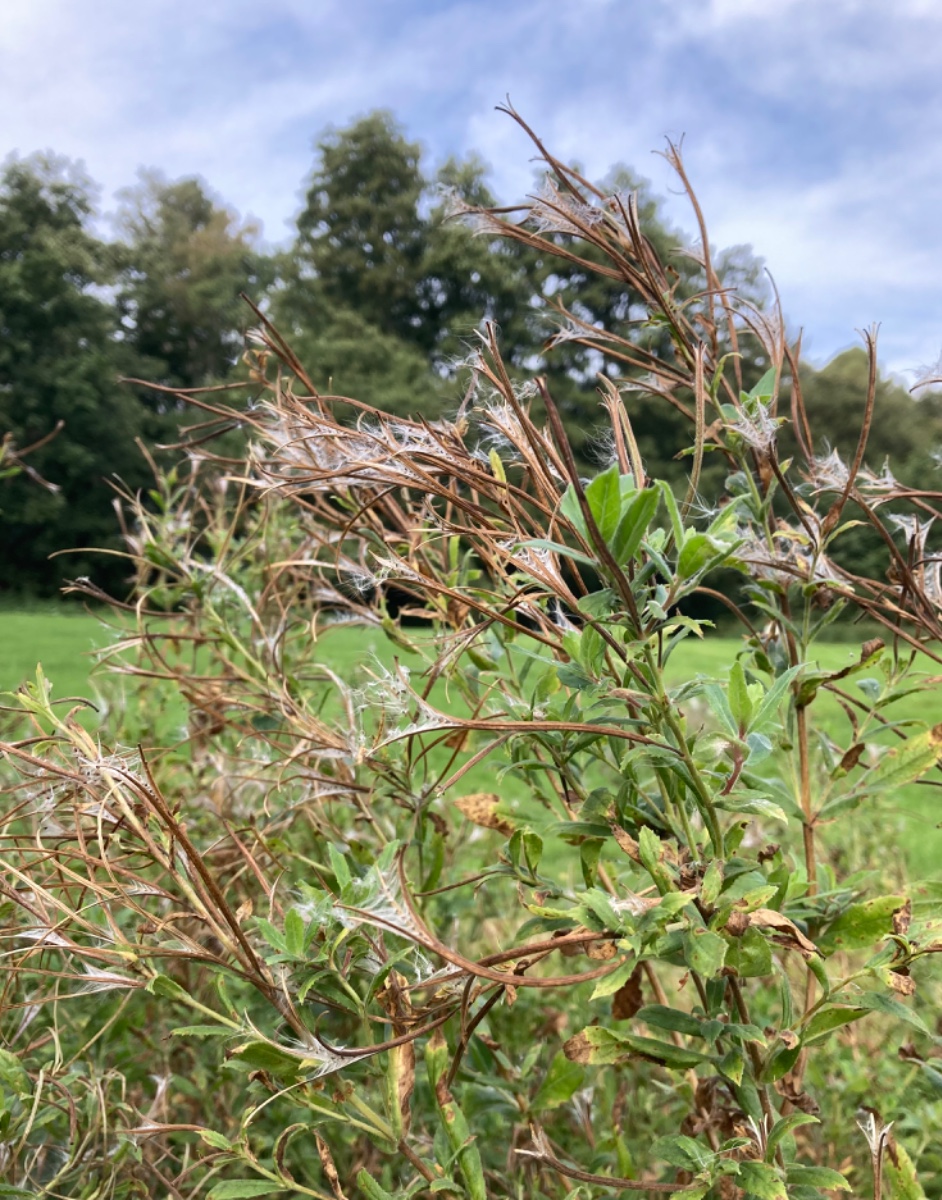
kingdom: Fungi
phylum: Basidiomycota
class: Pucciniomycetes
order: Pucciniales
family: Pucciniaceae
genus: Puccinia
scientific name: Puccinia pulverulenta
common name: dueurt-tvecellerust
